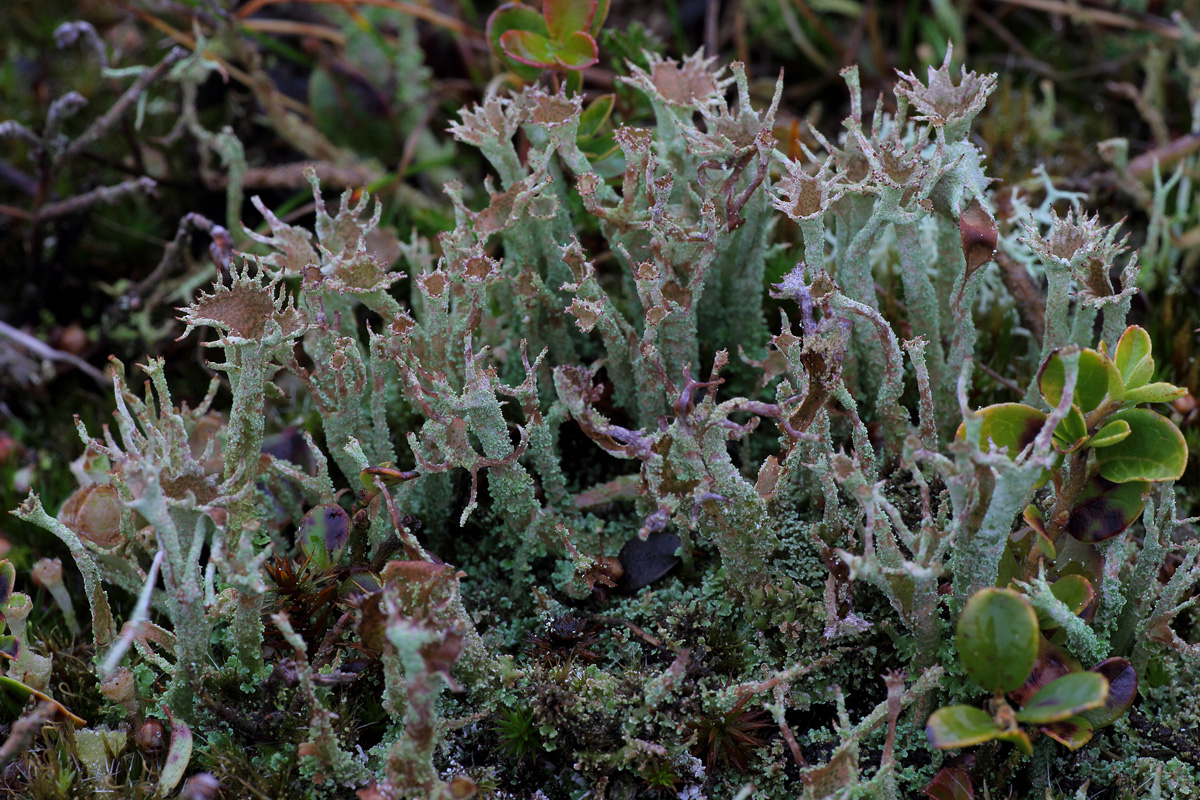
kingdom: Fungi
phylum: Ascomycota
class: Lecanoromycetes
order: Lecanorales
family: Cladoniaceae
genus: Cladonia
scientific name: Cladonia crispata
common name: takket bægerlav
